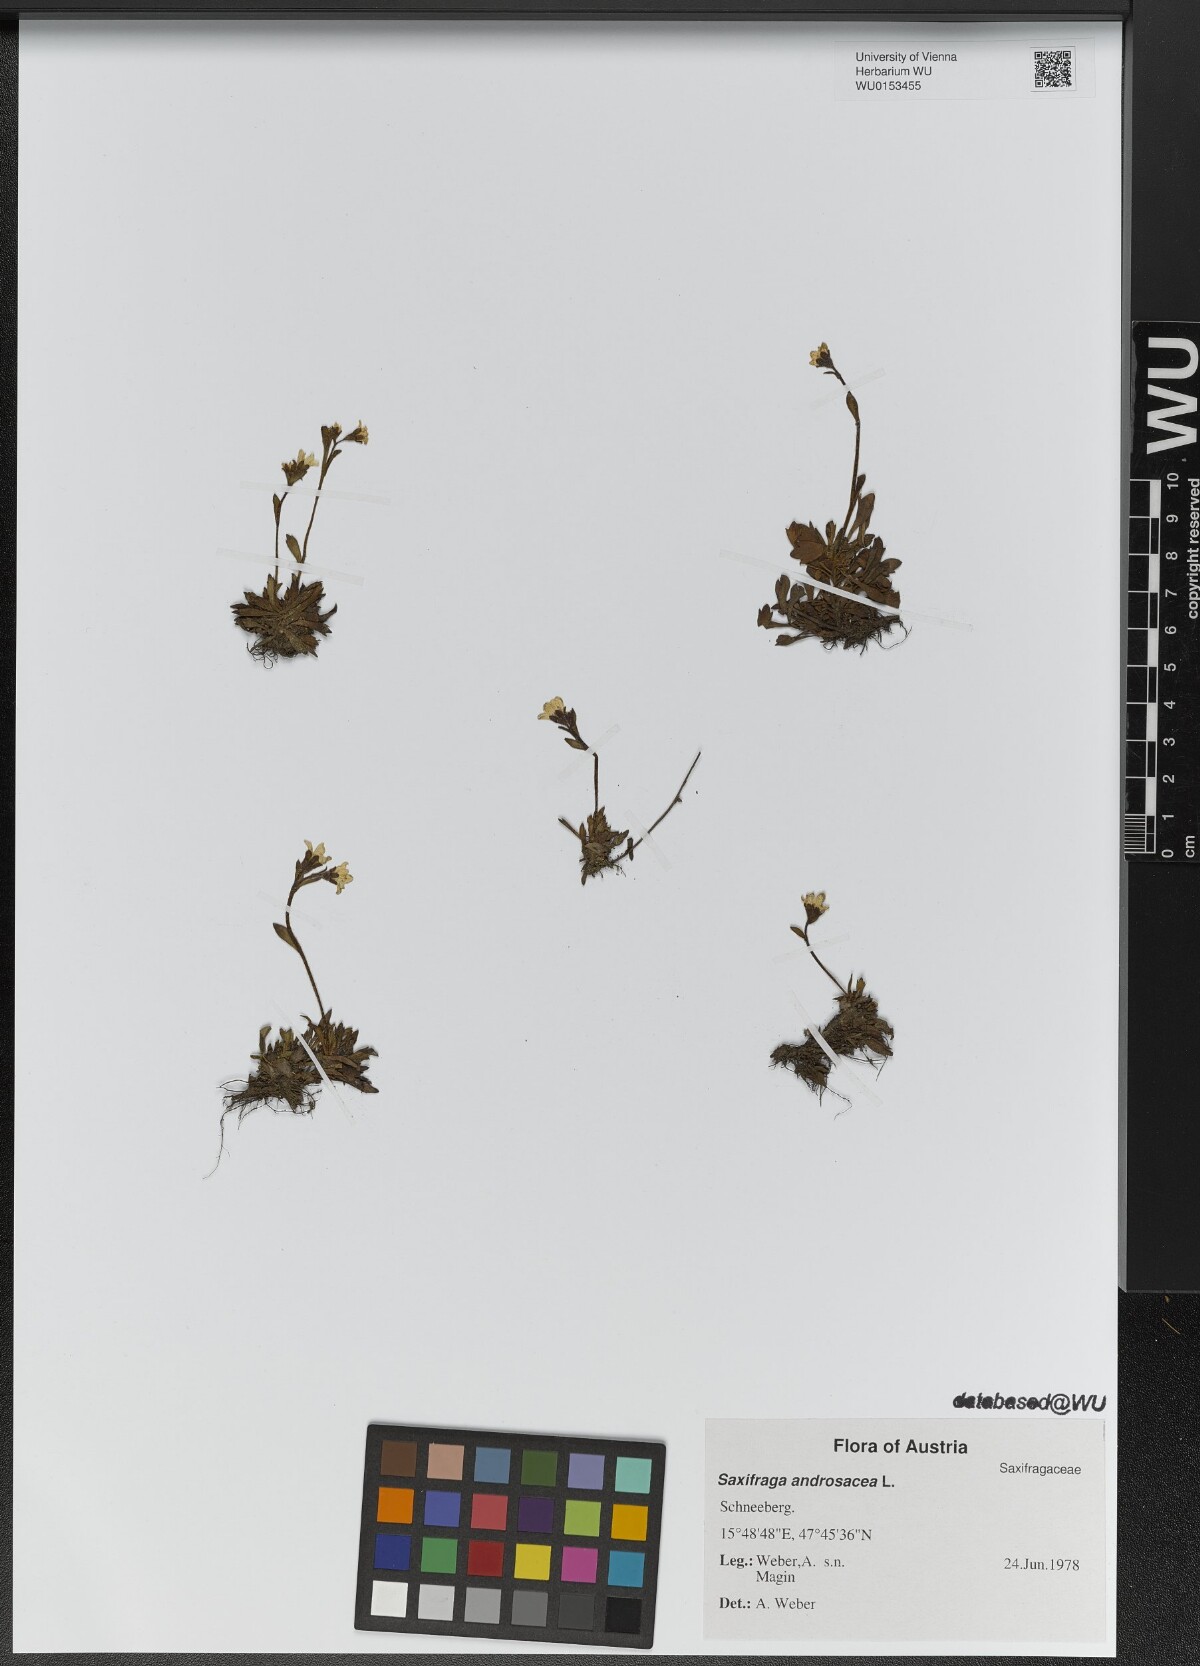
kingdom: Plantae
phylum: Tracheophyta
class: Magnoliopsida
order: Saxifragales
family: Saxifragaceae
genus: Saxifraga
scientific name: Saxifraga androsacea
